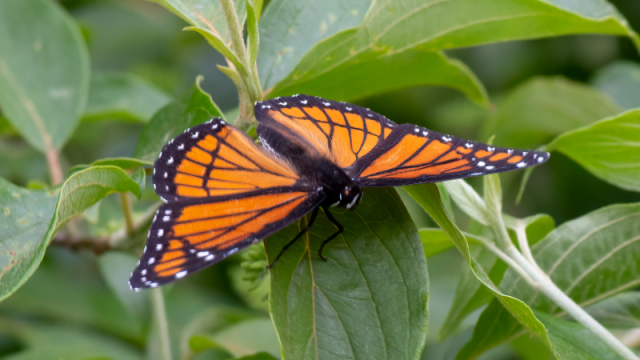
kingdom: Animalia
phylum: Arthropoda
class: Insecta
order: Lepidoptera
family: Nymphalidae
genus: Limenitis
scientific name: Limenitis archippus
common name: Viceroy
